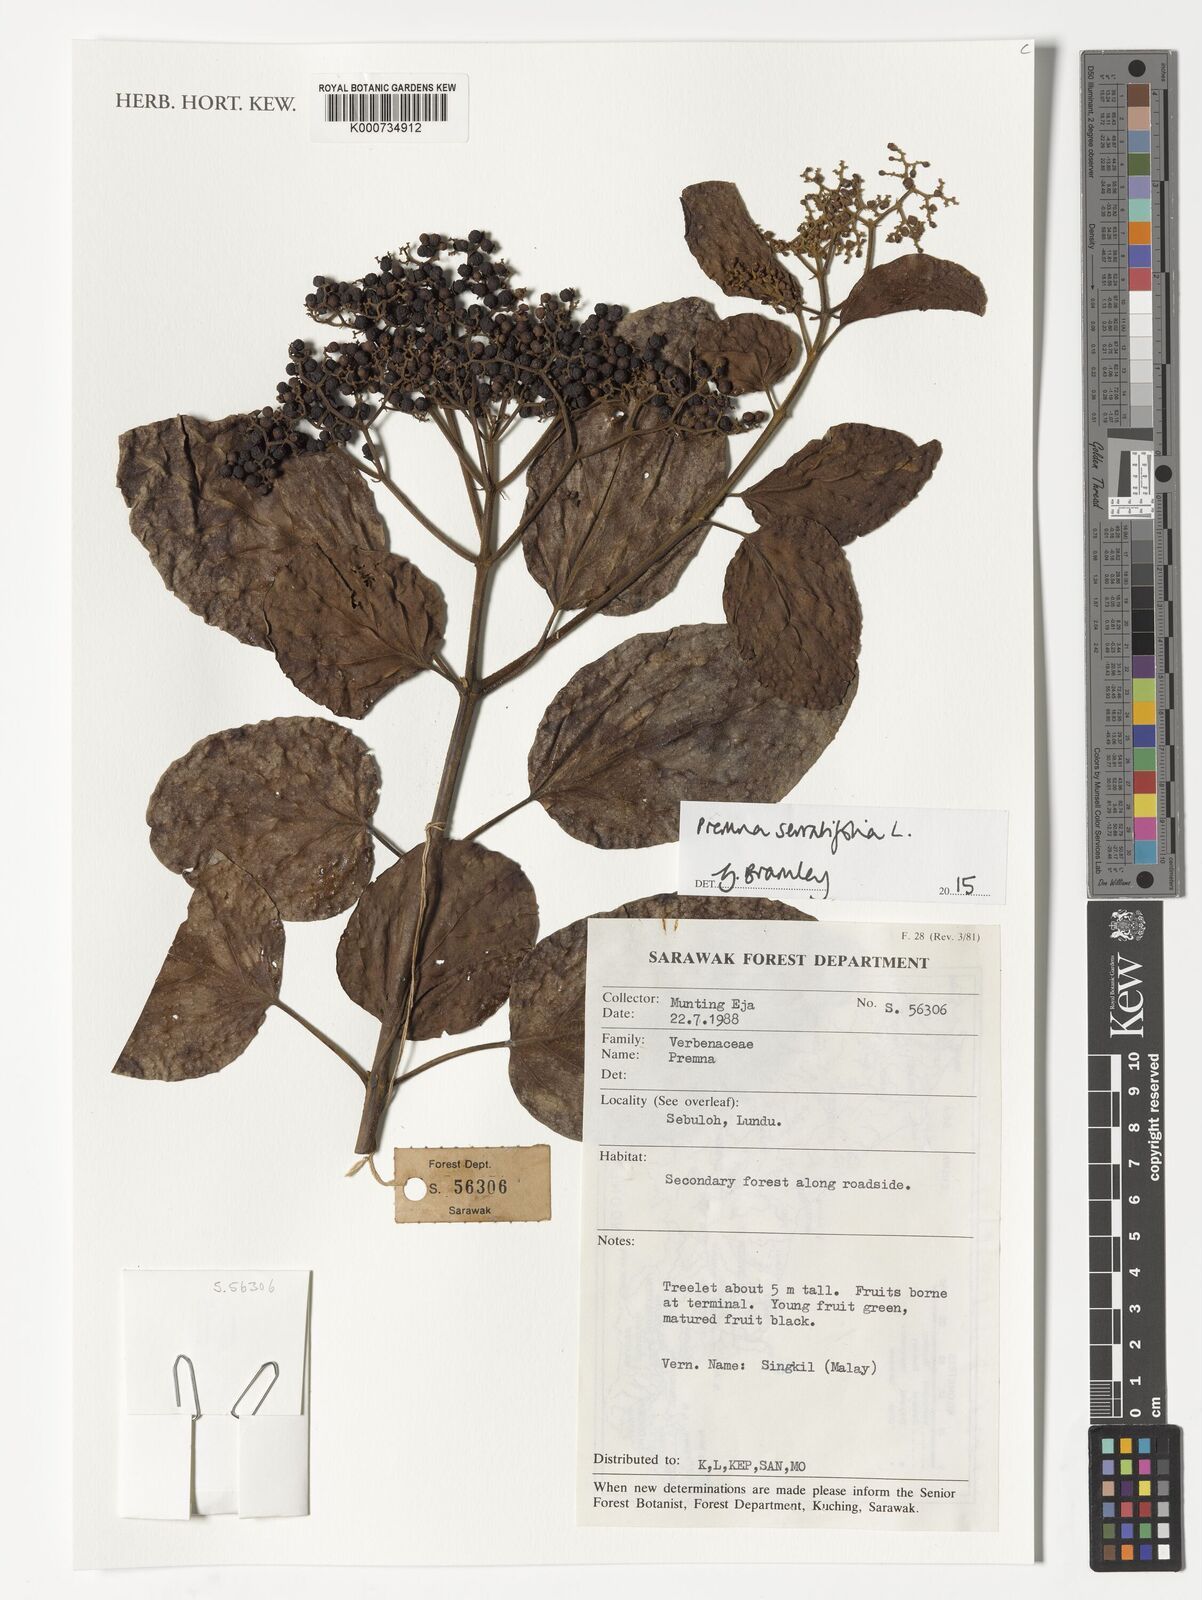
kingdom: Plantae
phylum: Tracheophyta
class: Magnoliopsida
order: Lamiales
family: Lamiaceae
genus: Premna
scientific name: Premna serratifolia
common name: Bastard guelder
